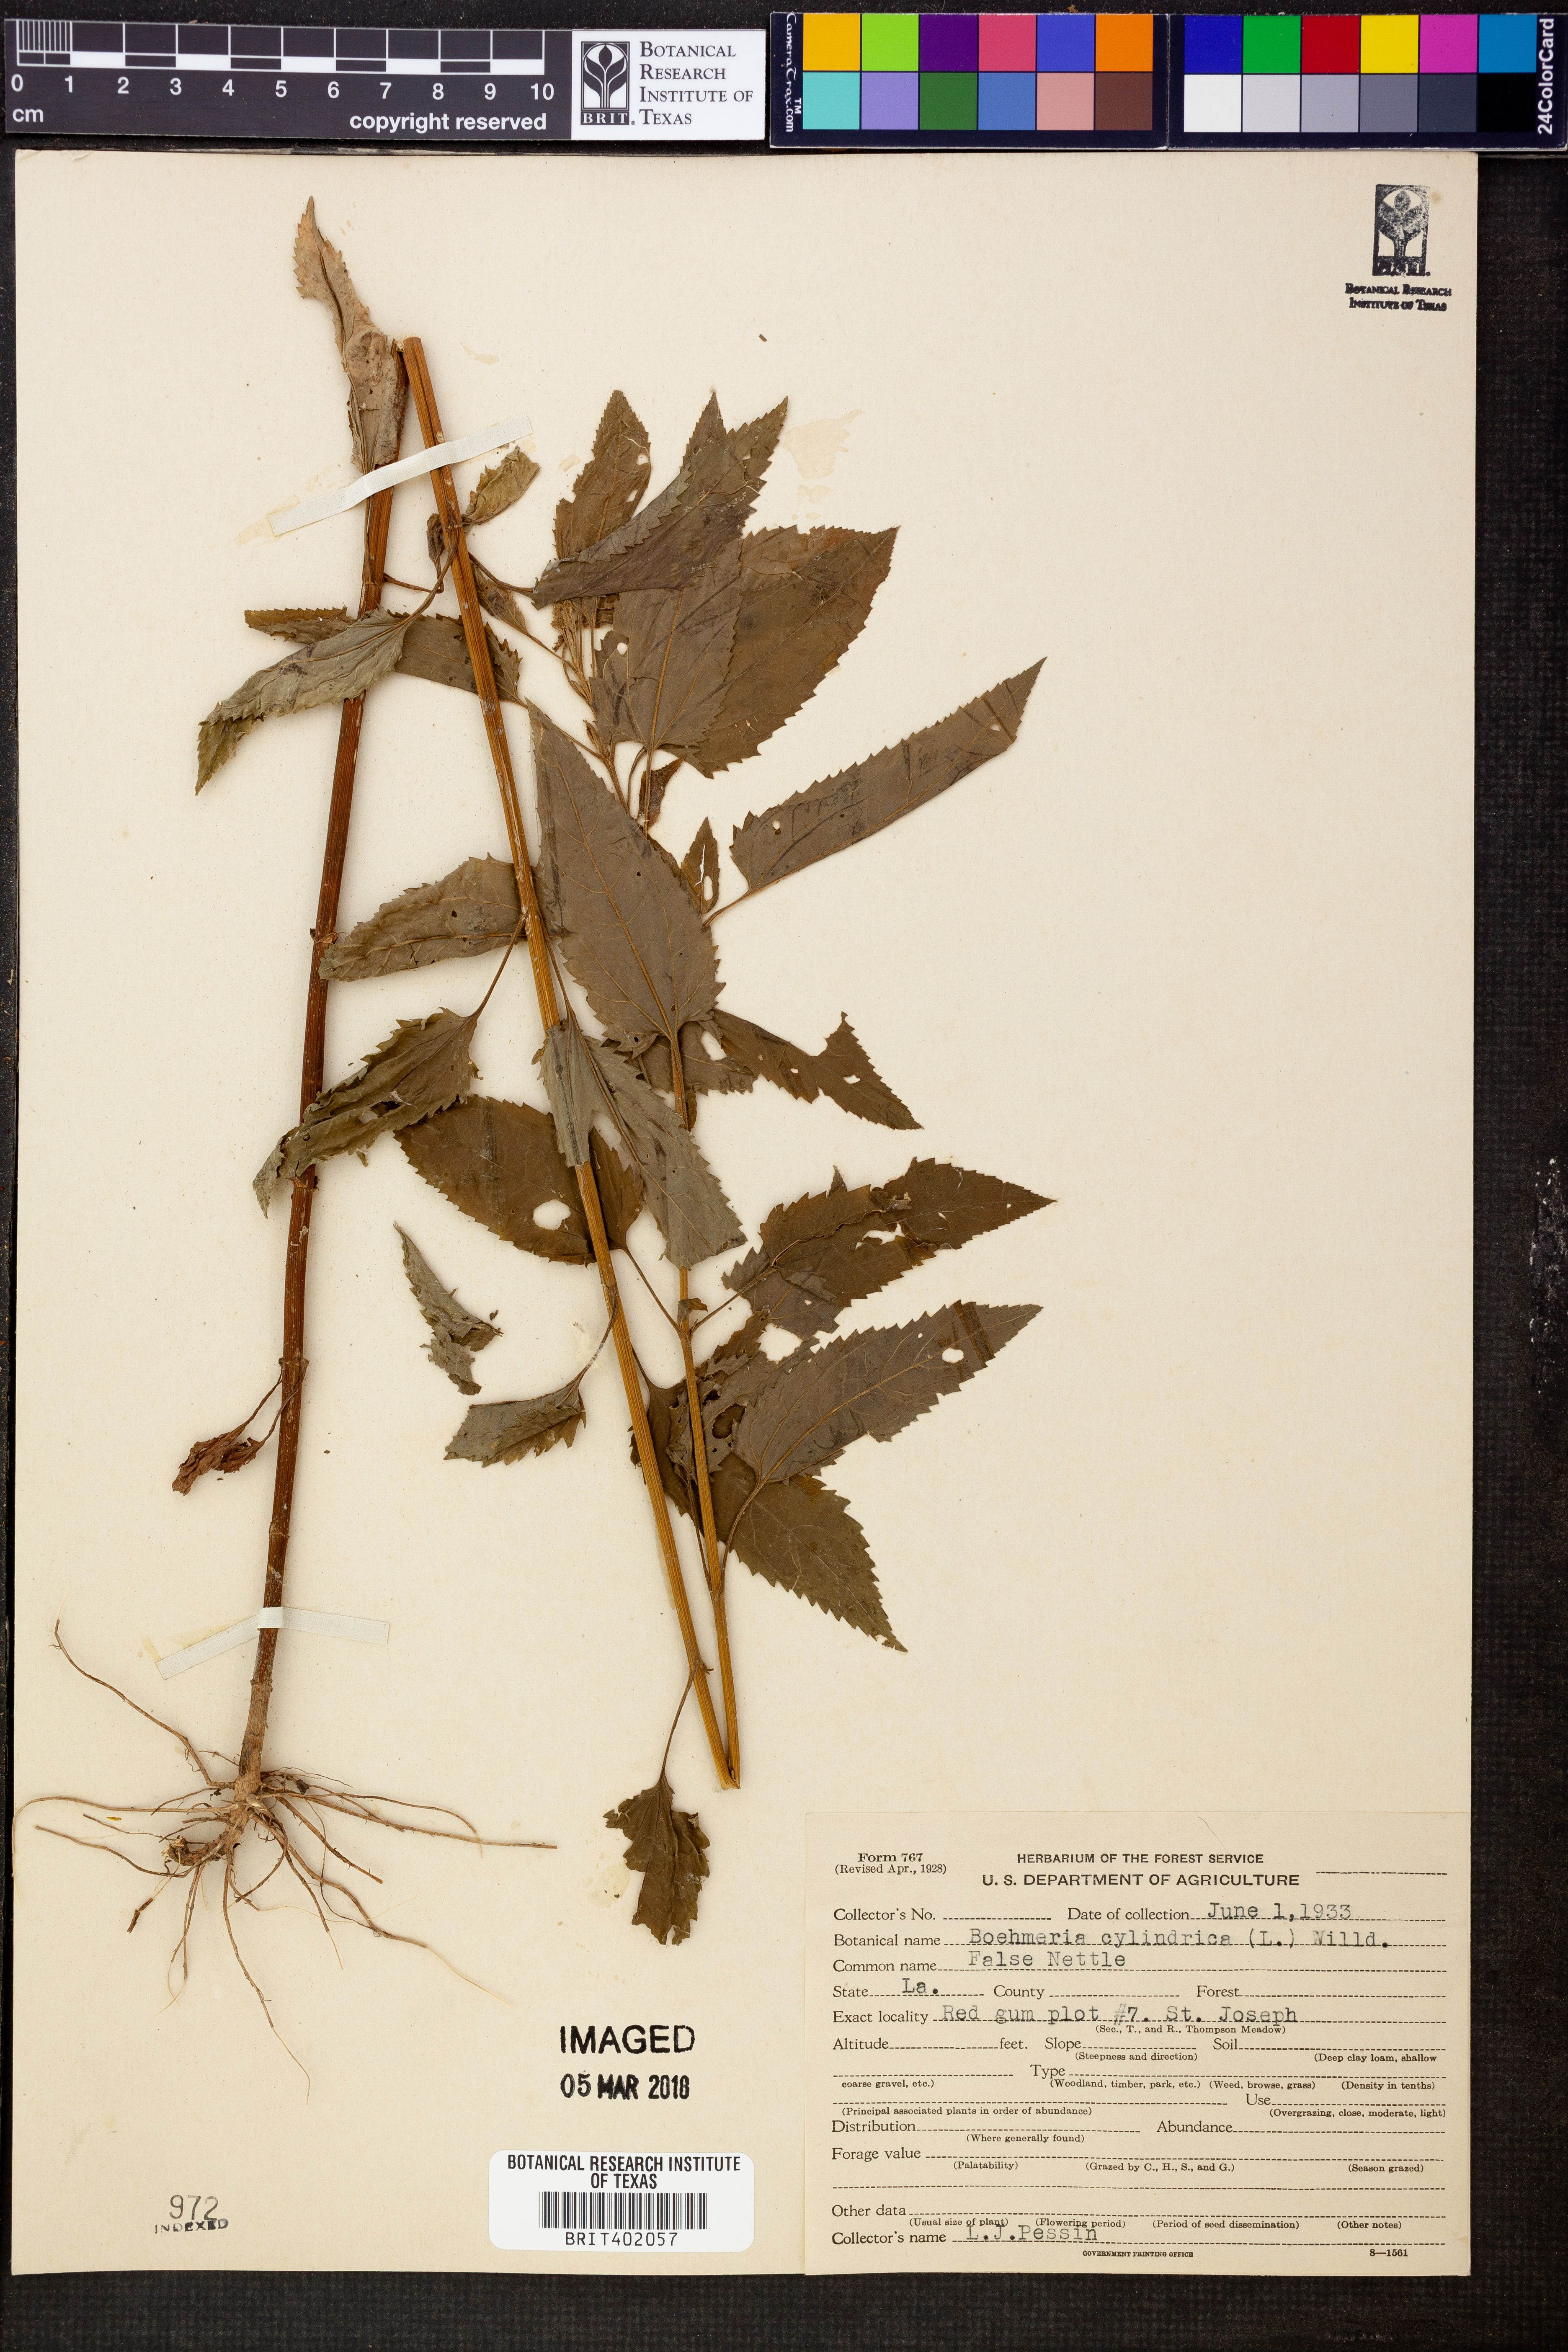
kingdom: Plantae
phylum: Tracheophyta
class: Magnoliopsida
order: Rosales
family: Urticaceae
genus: Boehmeria
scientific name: Boehmeria cylindrica
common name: Bog-hemp
